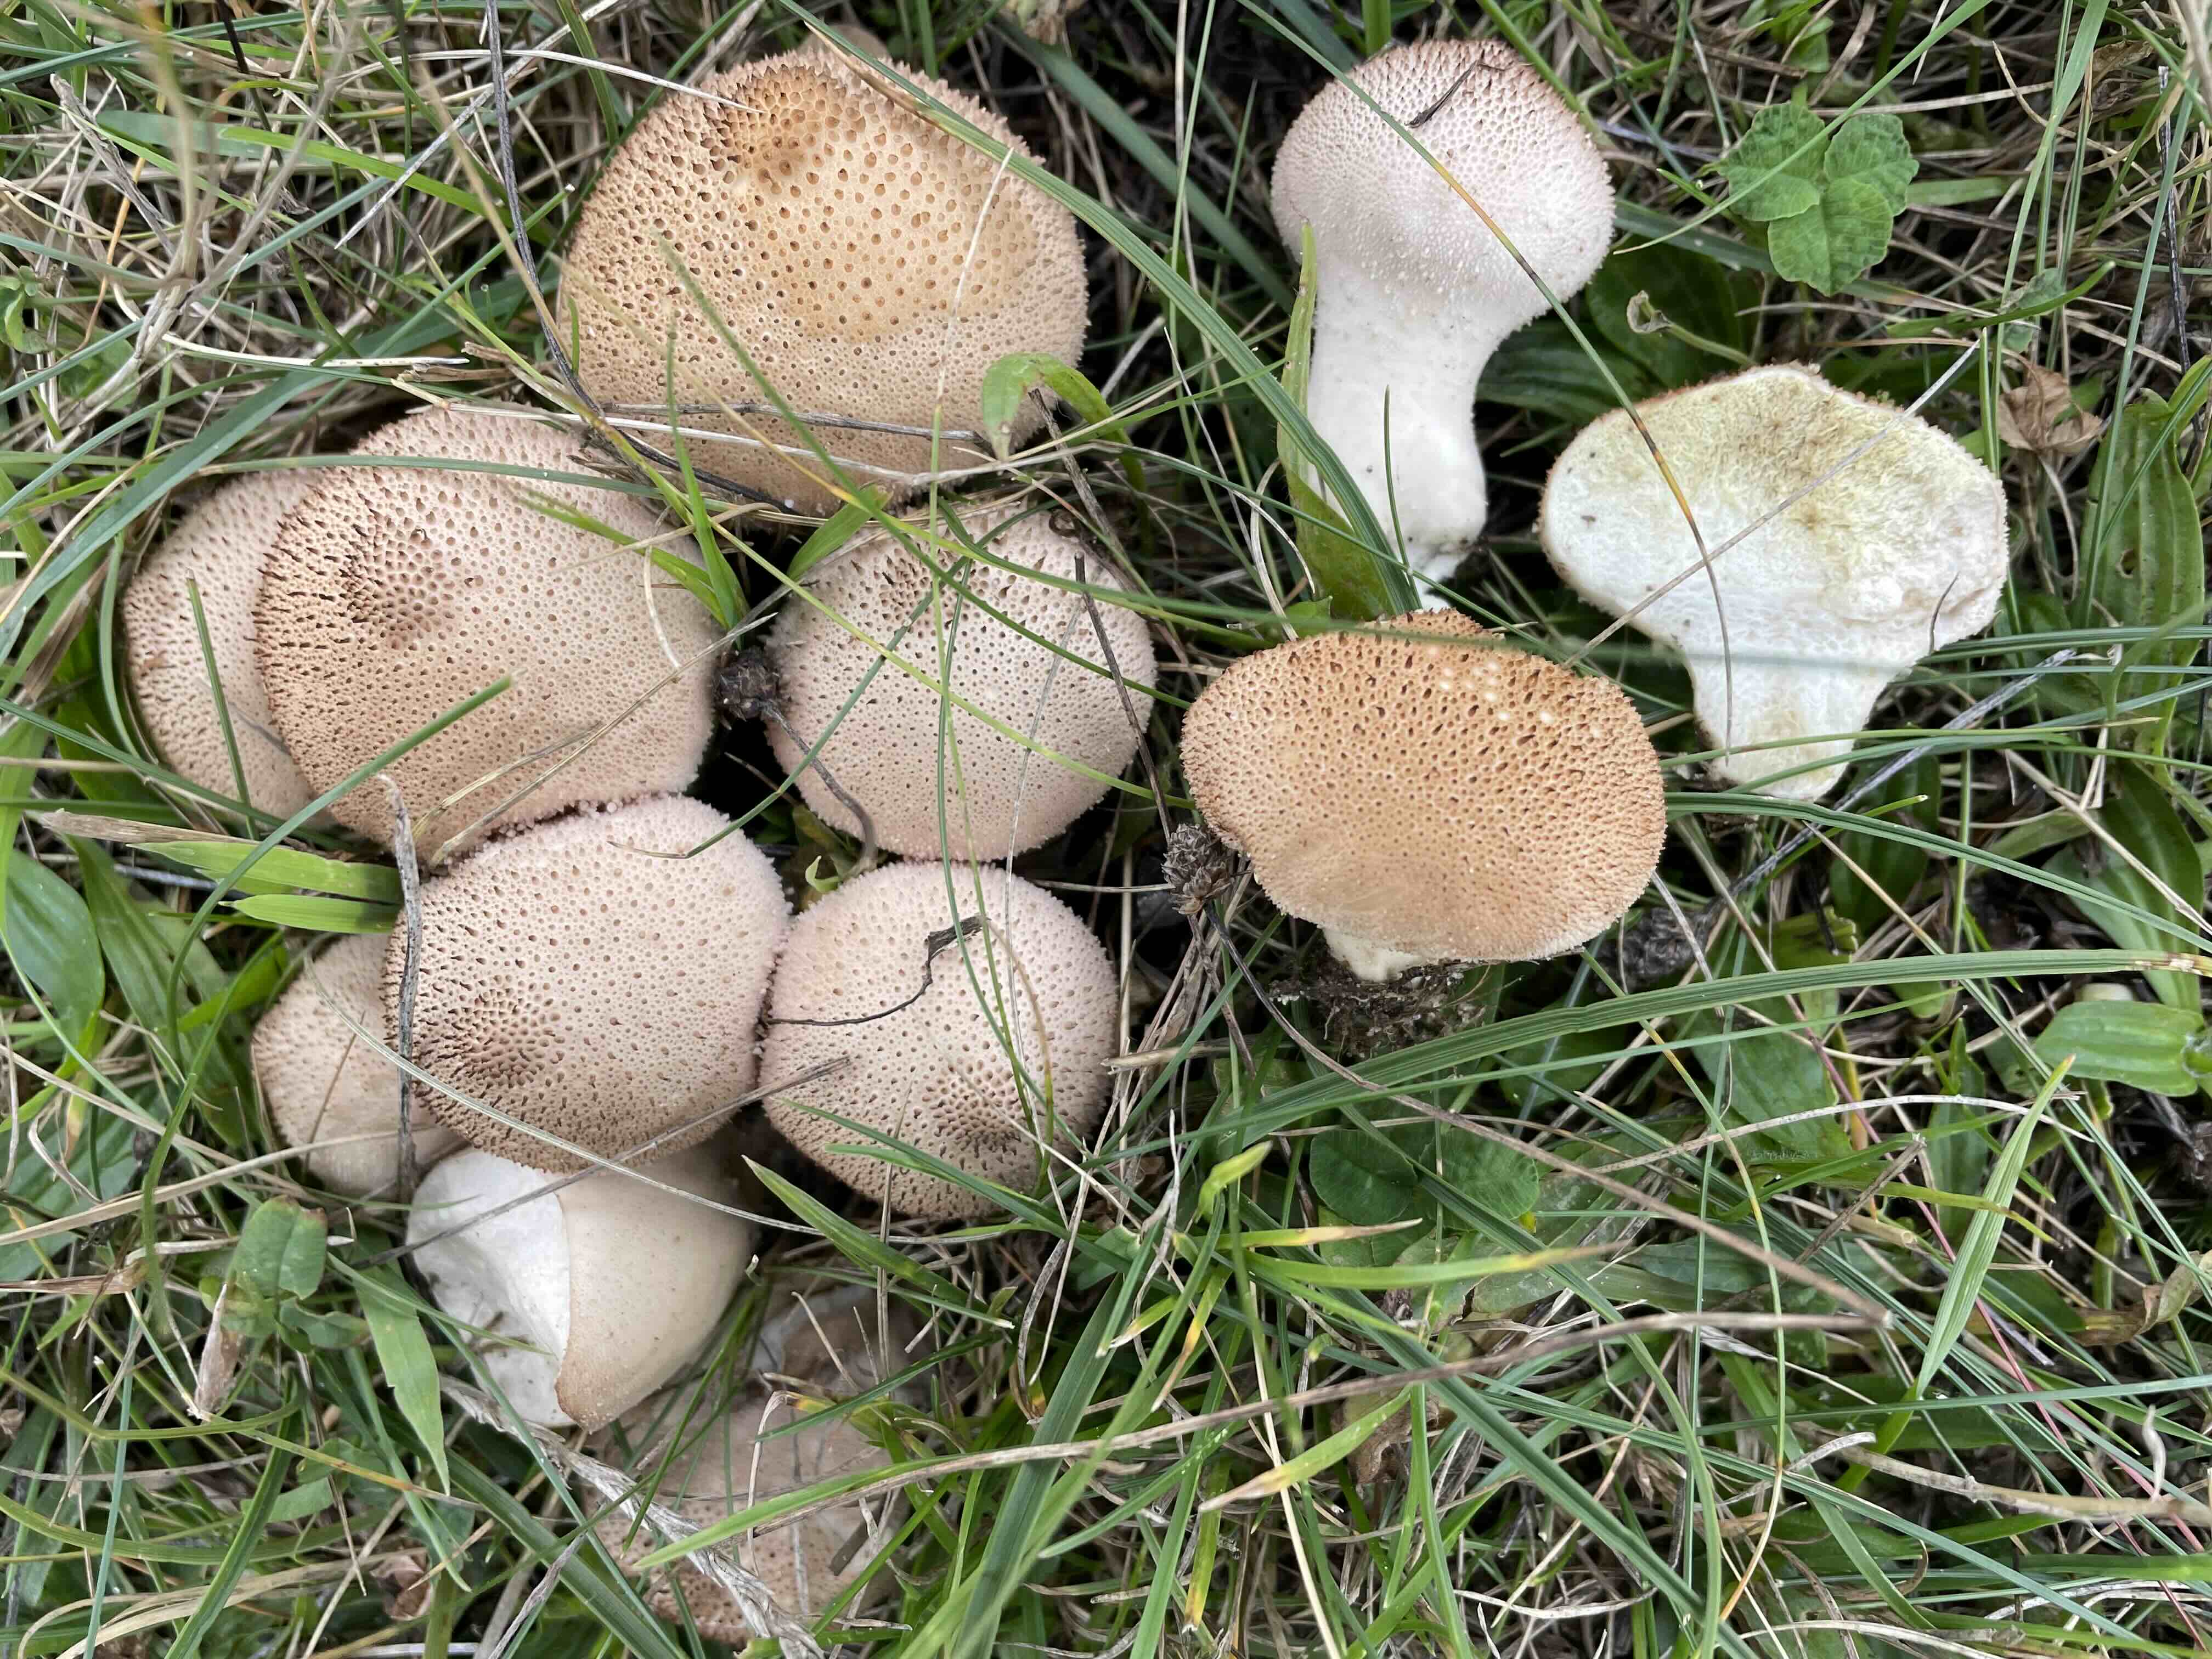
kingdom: Fungi
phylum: Basidiomycota
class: Agaricomycetes
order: Agaricales
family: Lycoperdaceae
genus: Lycoperdon
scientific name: Lycoperdon perlatum
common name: krystal-støvbold
